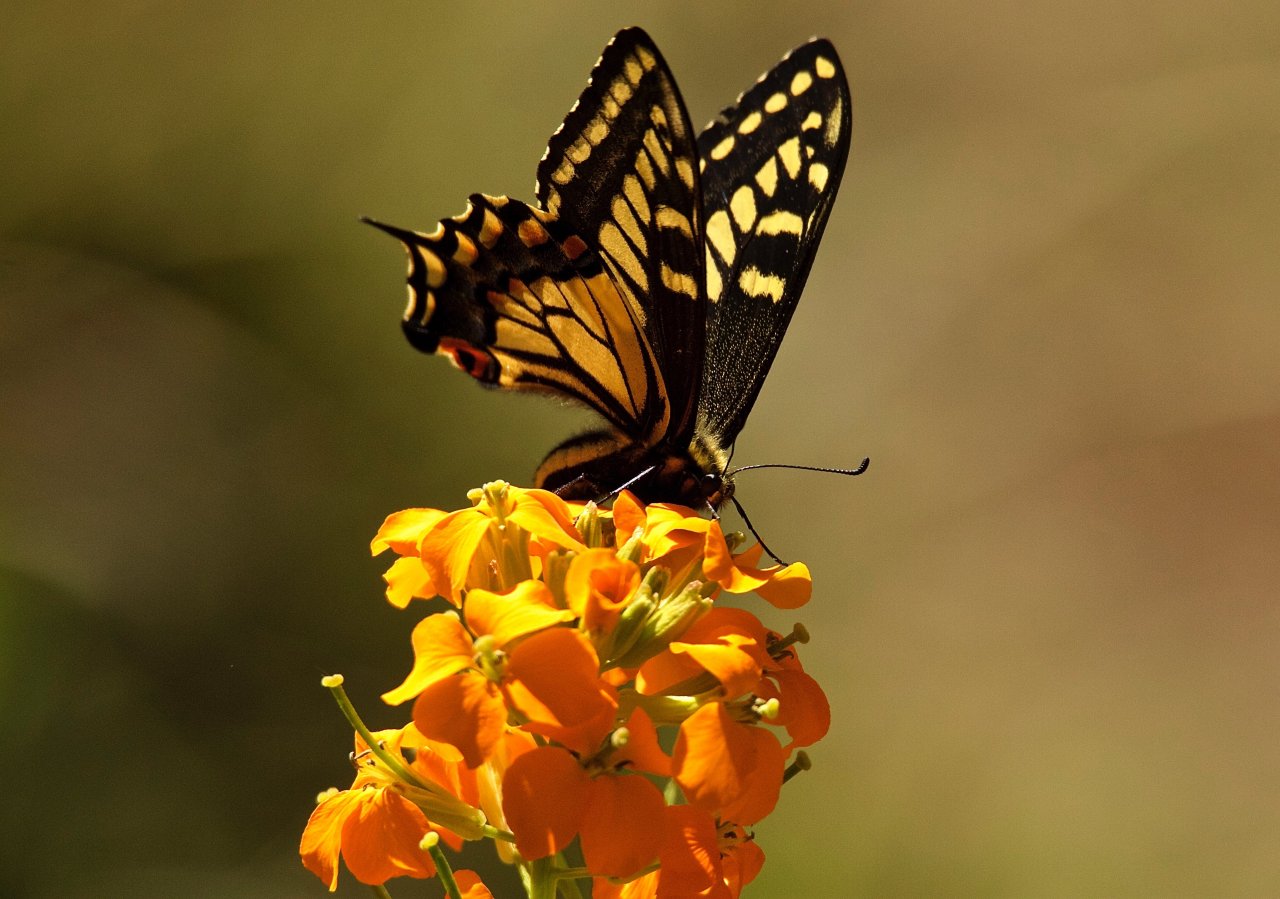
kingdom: Animalia
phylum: Arthropoda
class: Insecta
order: Lepidoptera
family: Papilionidae
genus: Papilio
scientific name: Papilio zelicaon
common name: Anise Swallowtail
